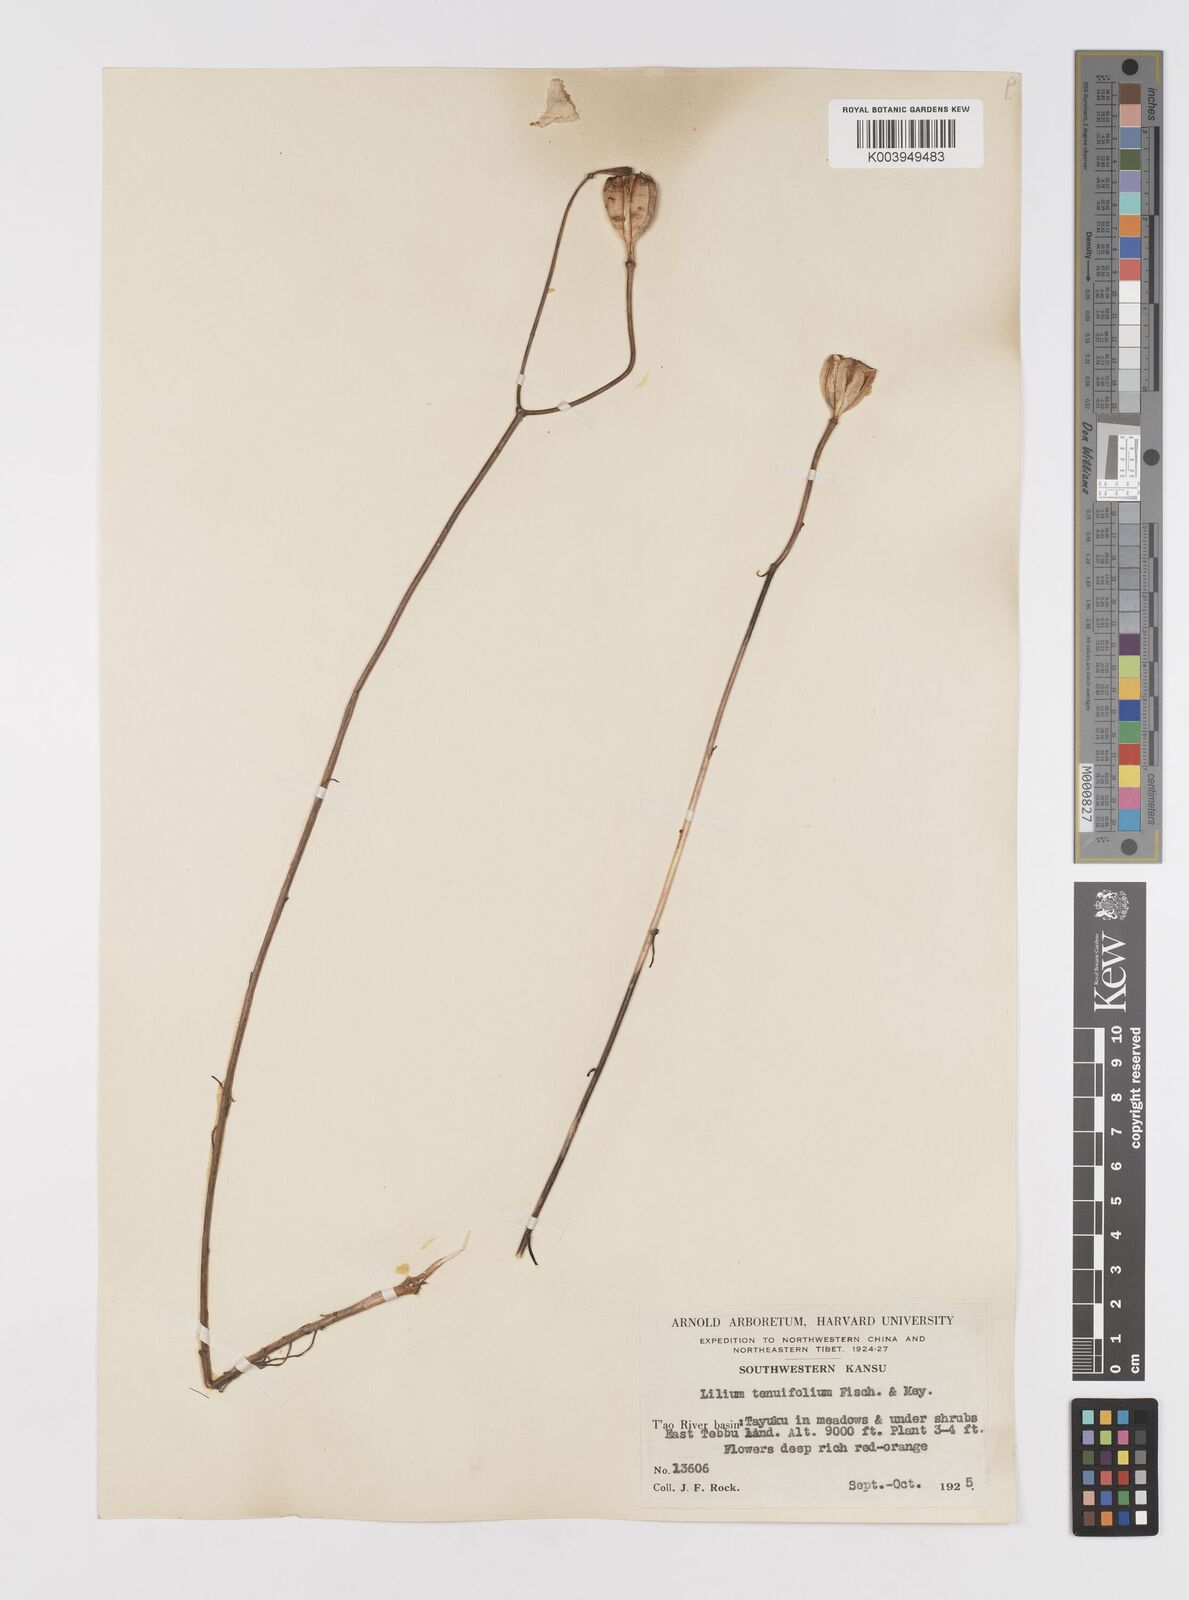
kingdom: Plantae
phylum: Tracheophyta
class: Liliopsida
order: Liliales
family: Liliaceae
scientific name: Liliaceae
